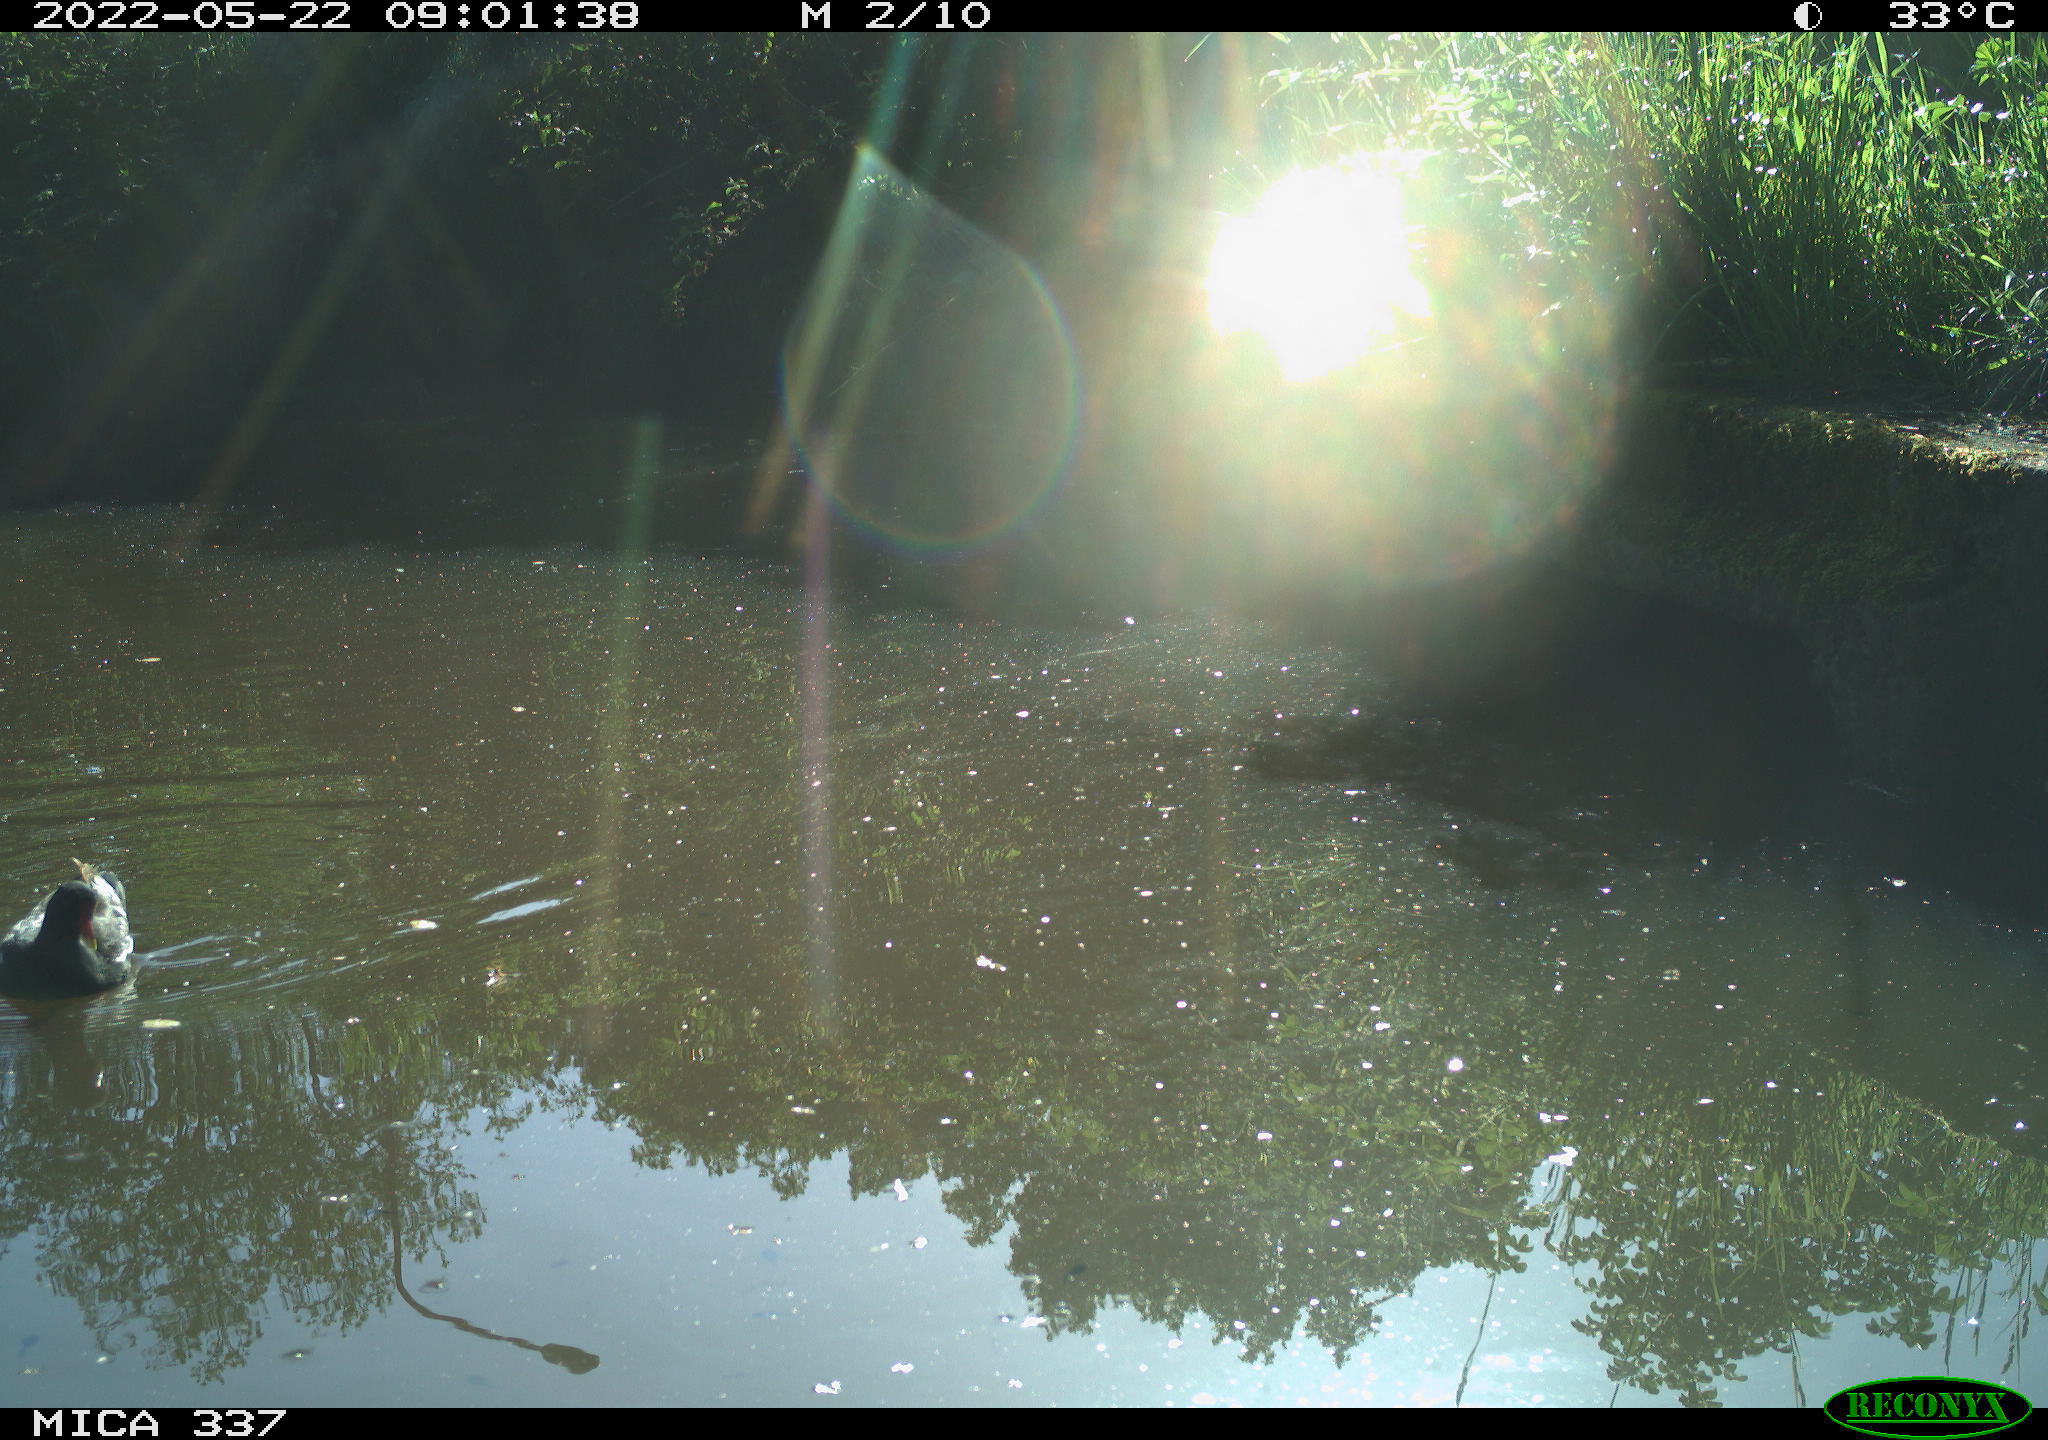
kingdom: Animalia
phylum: Chordata
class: Aves
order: Gruiformes
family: Rallidae
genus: Gallinula
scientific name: Gallinula chloropus
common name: Common moorhen
